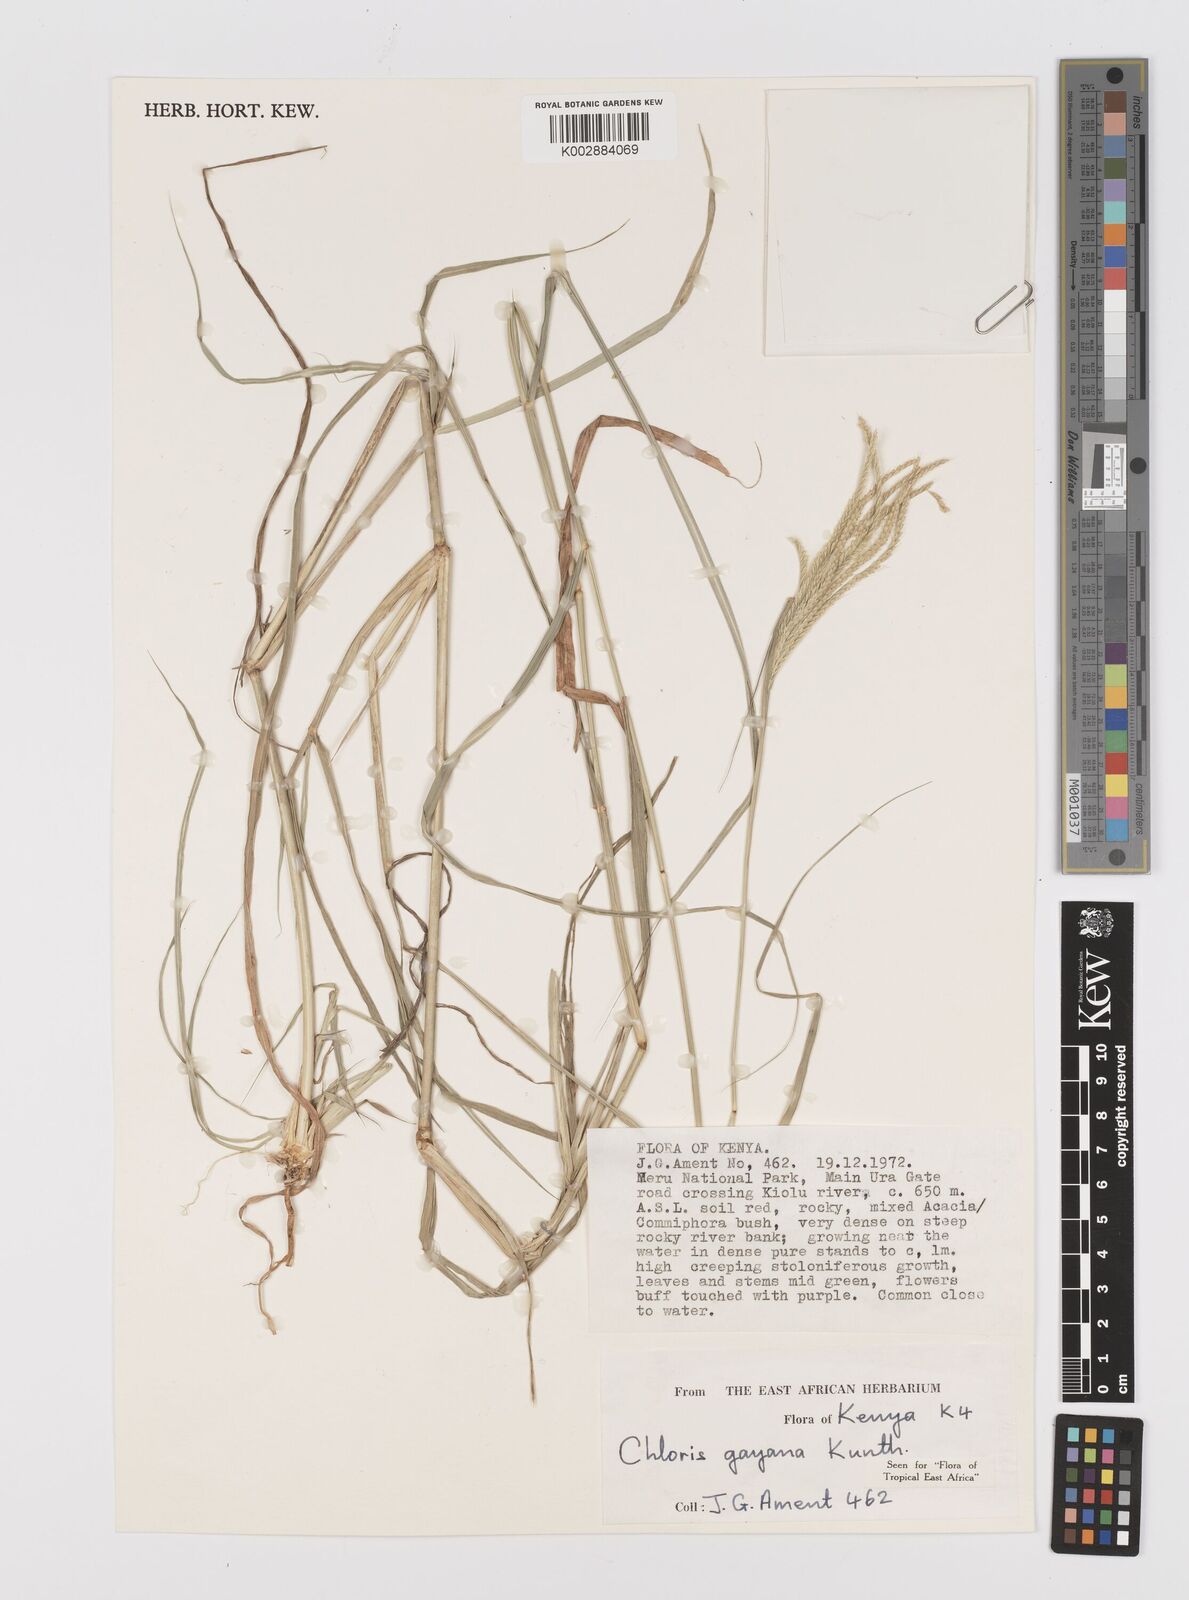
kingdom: Plantae
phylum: Tracheophyta
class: Liliopsida
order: Poales
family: Poaceae
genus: Chloris
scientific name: Chloris gayana
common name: Rhodes grass
